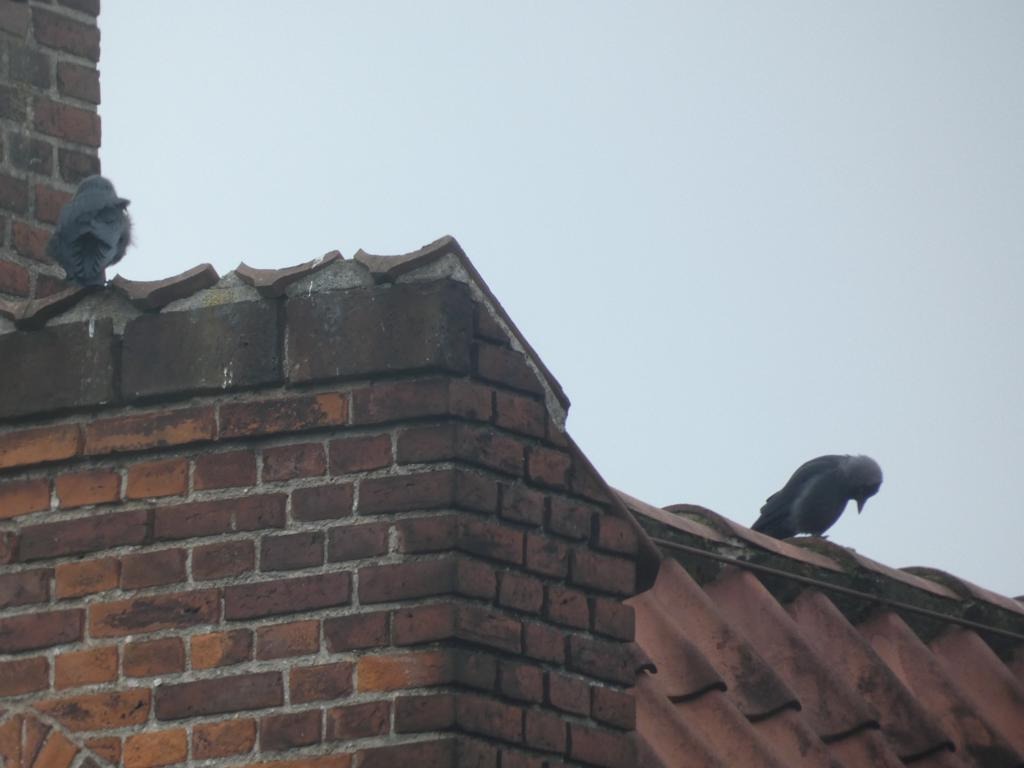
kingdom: Animalia
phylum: Chordata
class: Aves
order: Passeriformes
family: Corvidae
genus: Coloeus
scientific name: Coloeus monedula
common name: Allike
